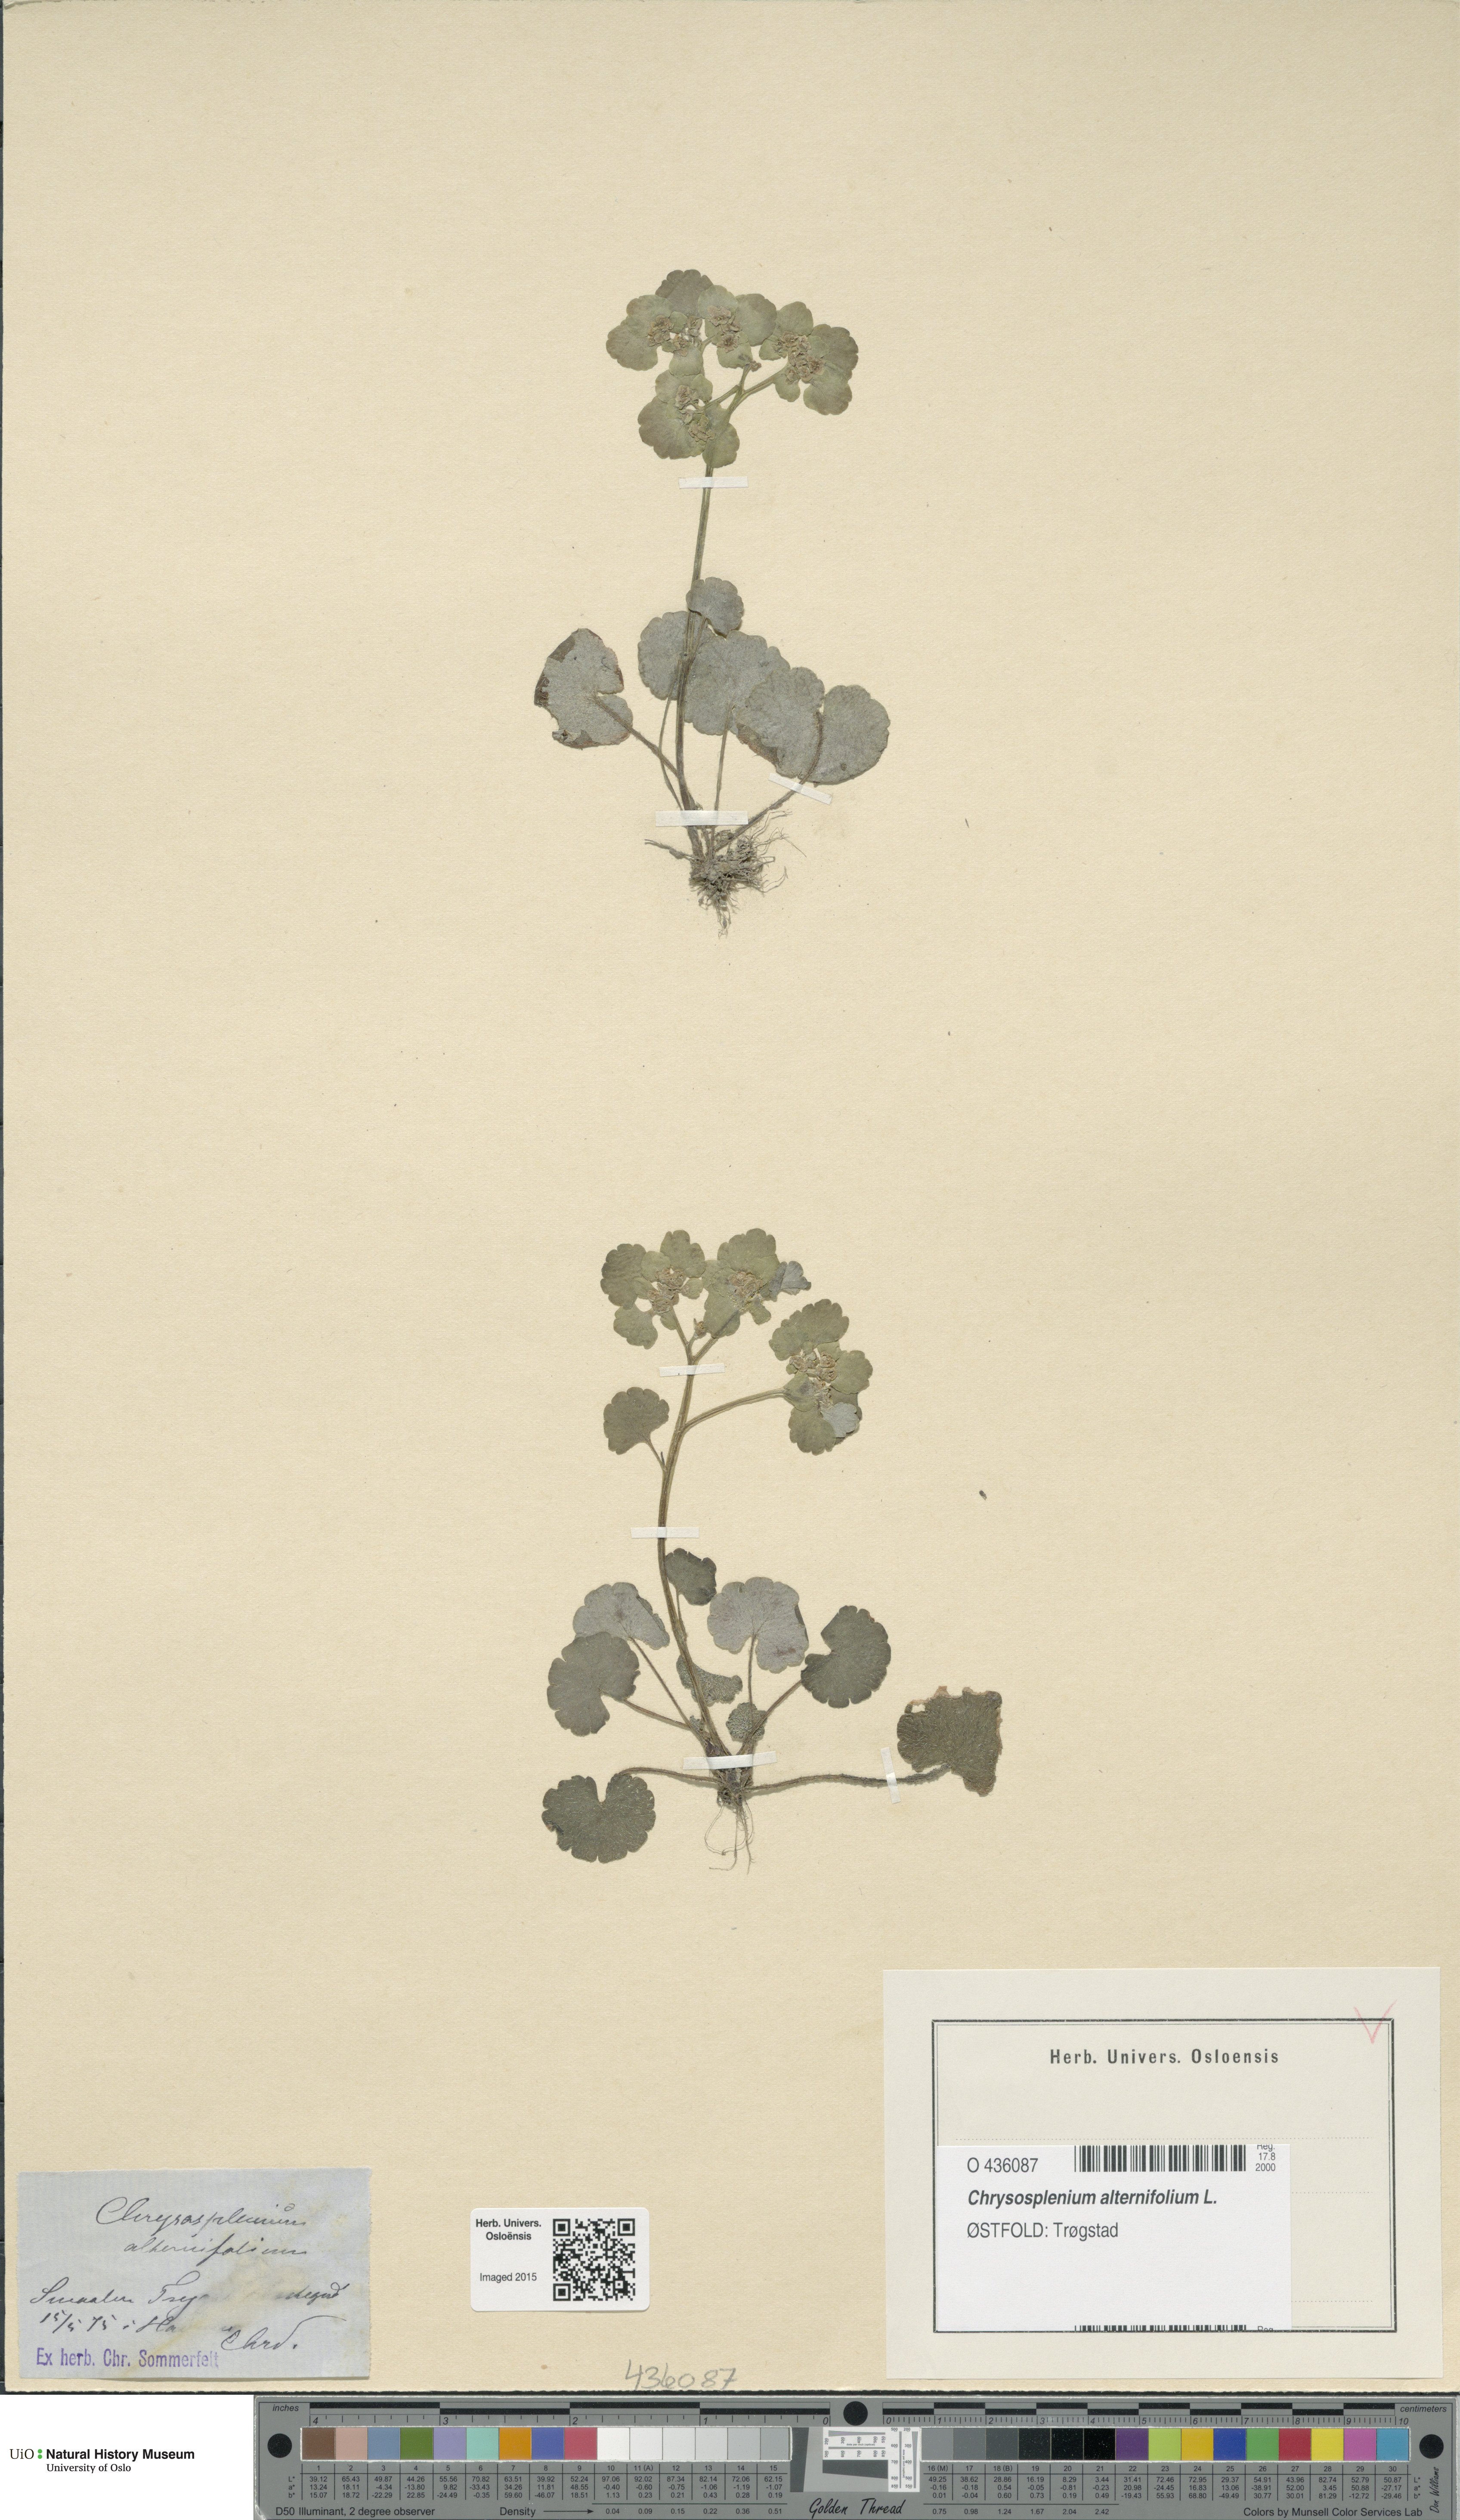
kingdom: Plantae
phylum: Tracheophyta
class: Magnoliopsida
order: Saxifragales
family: Saxifragaceae
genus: Chrysosplenium
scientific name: Chrysosplenium alternifolium
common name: Alternate-leaved golden-saxifrage
